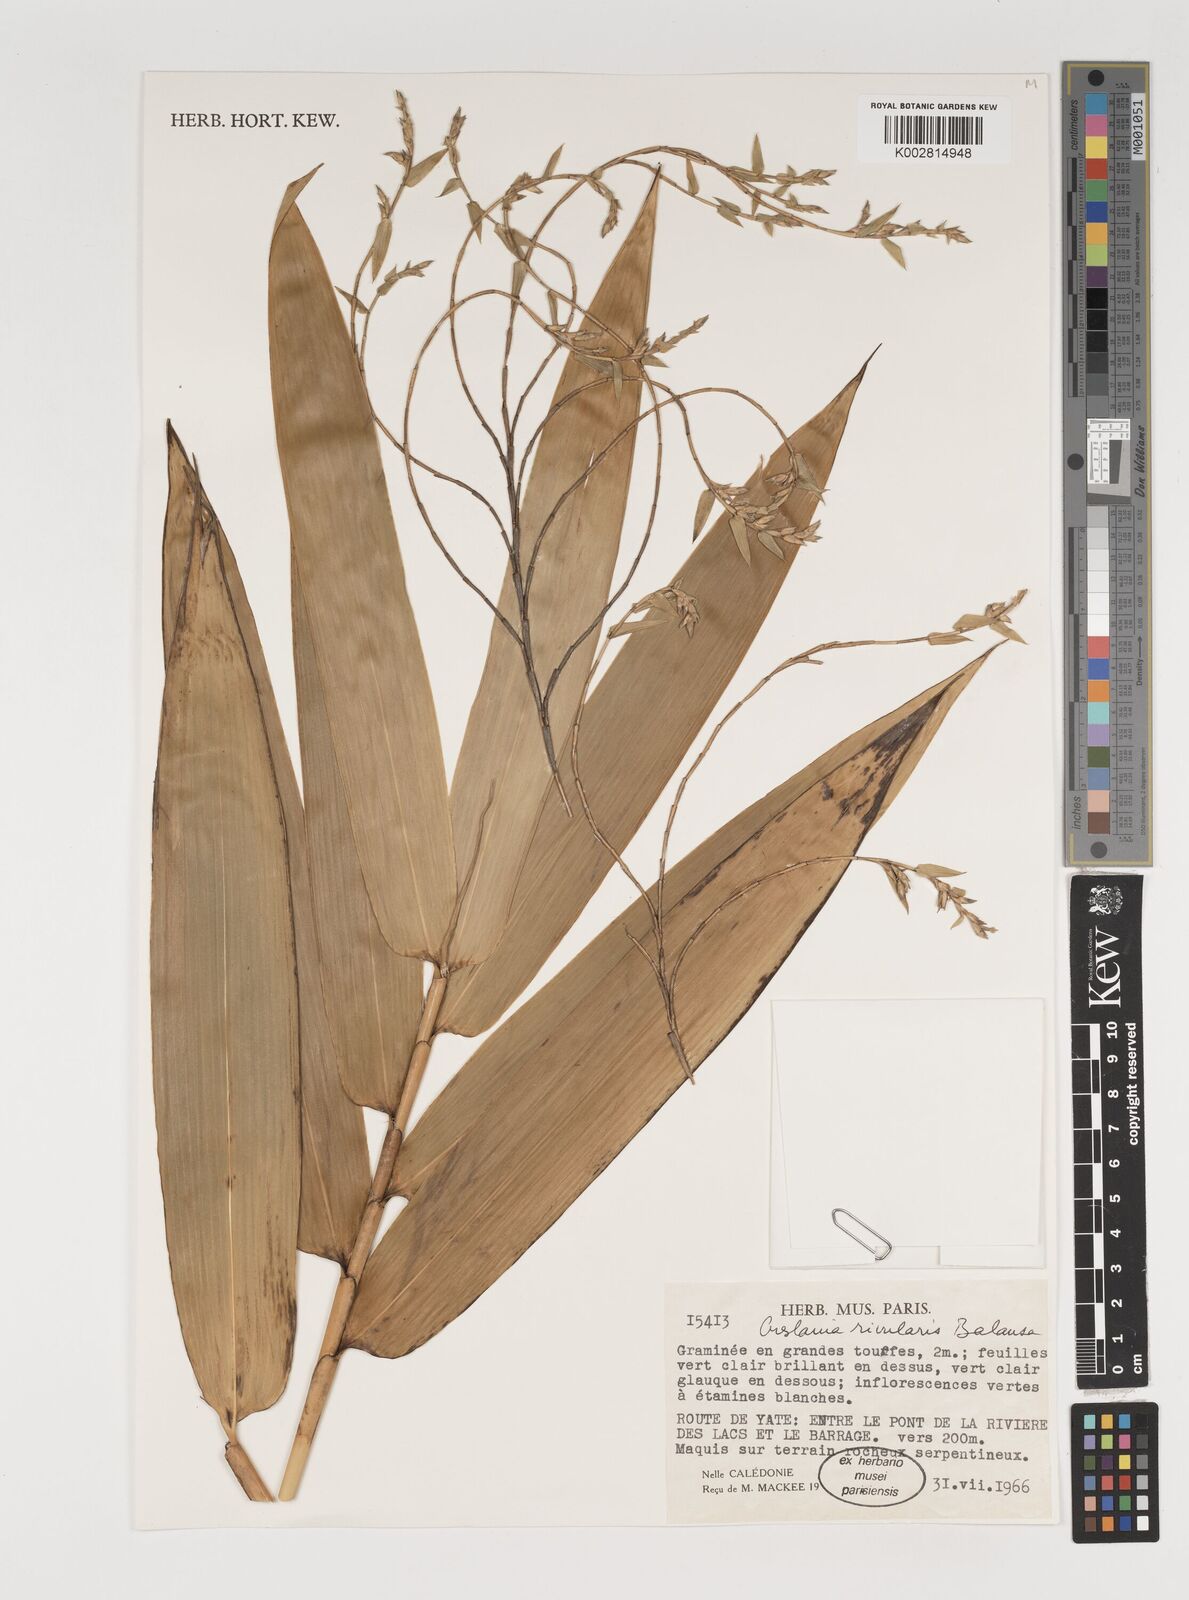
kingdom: Plantae
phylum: Tracheophyta
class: Liliopsida
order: Poales
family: Poaceae
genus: Greslania
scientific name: Greslania rivularis
